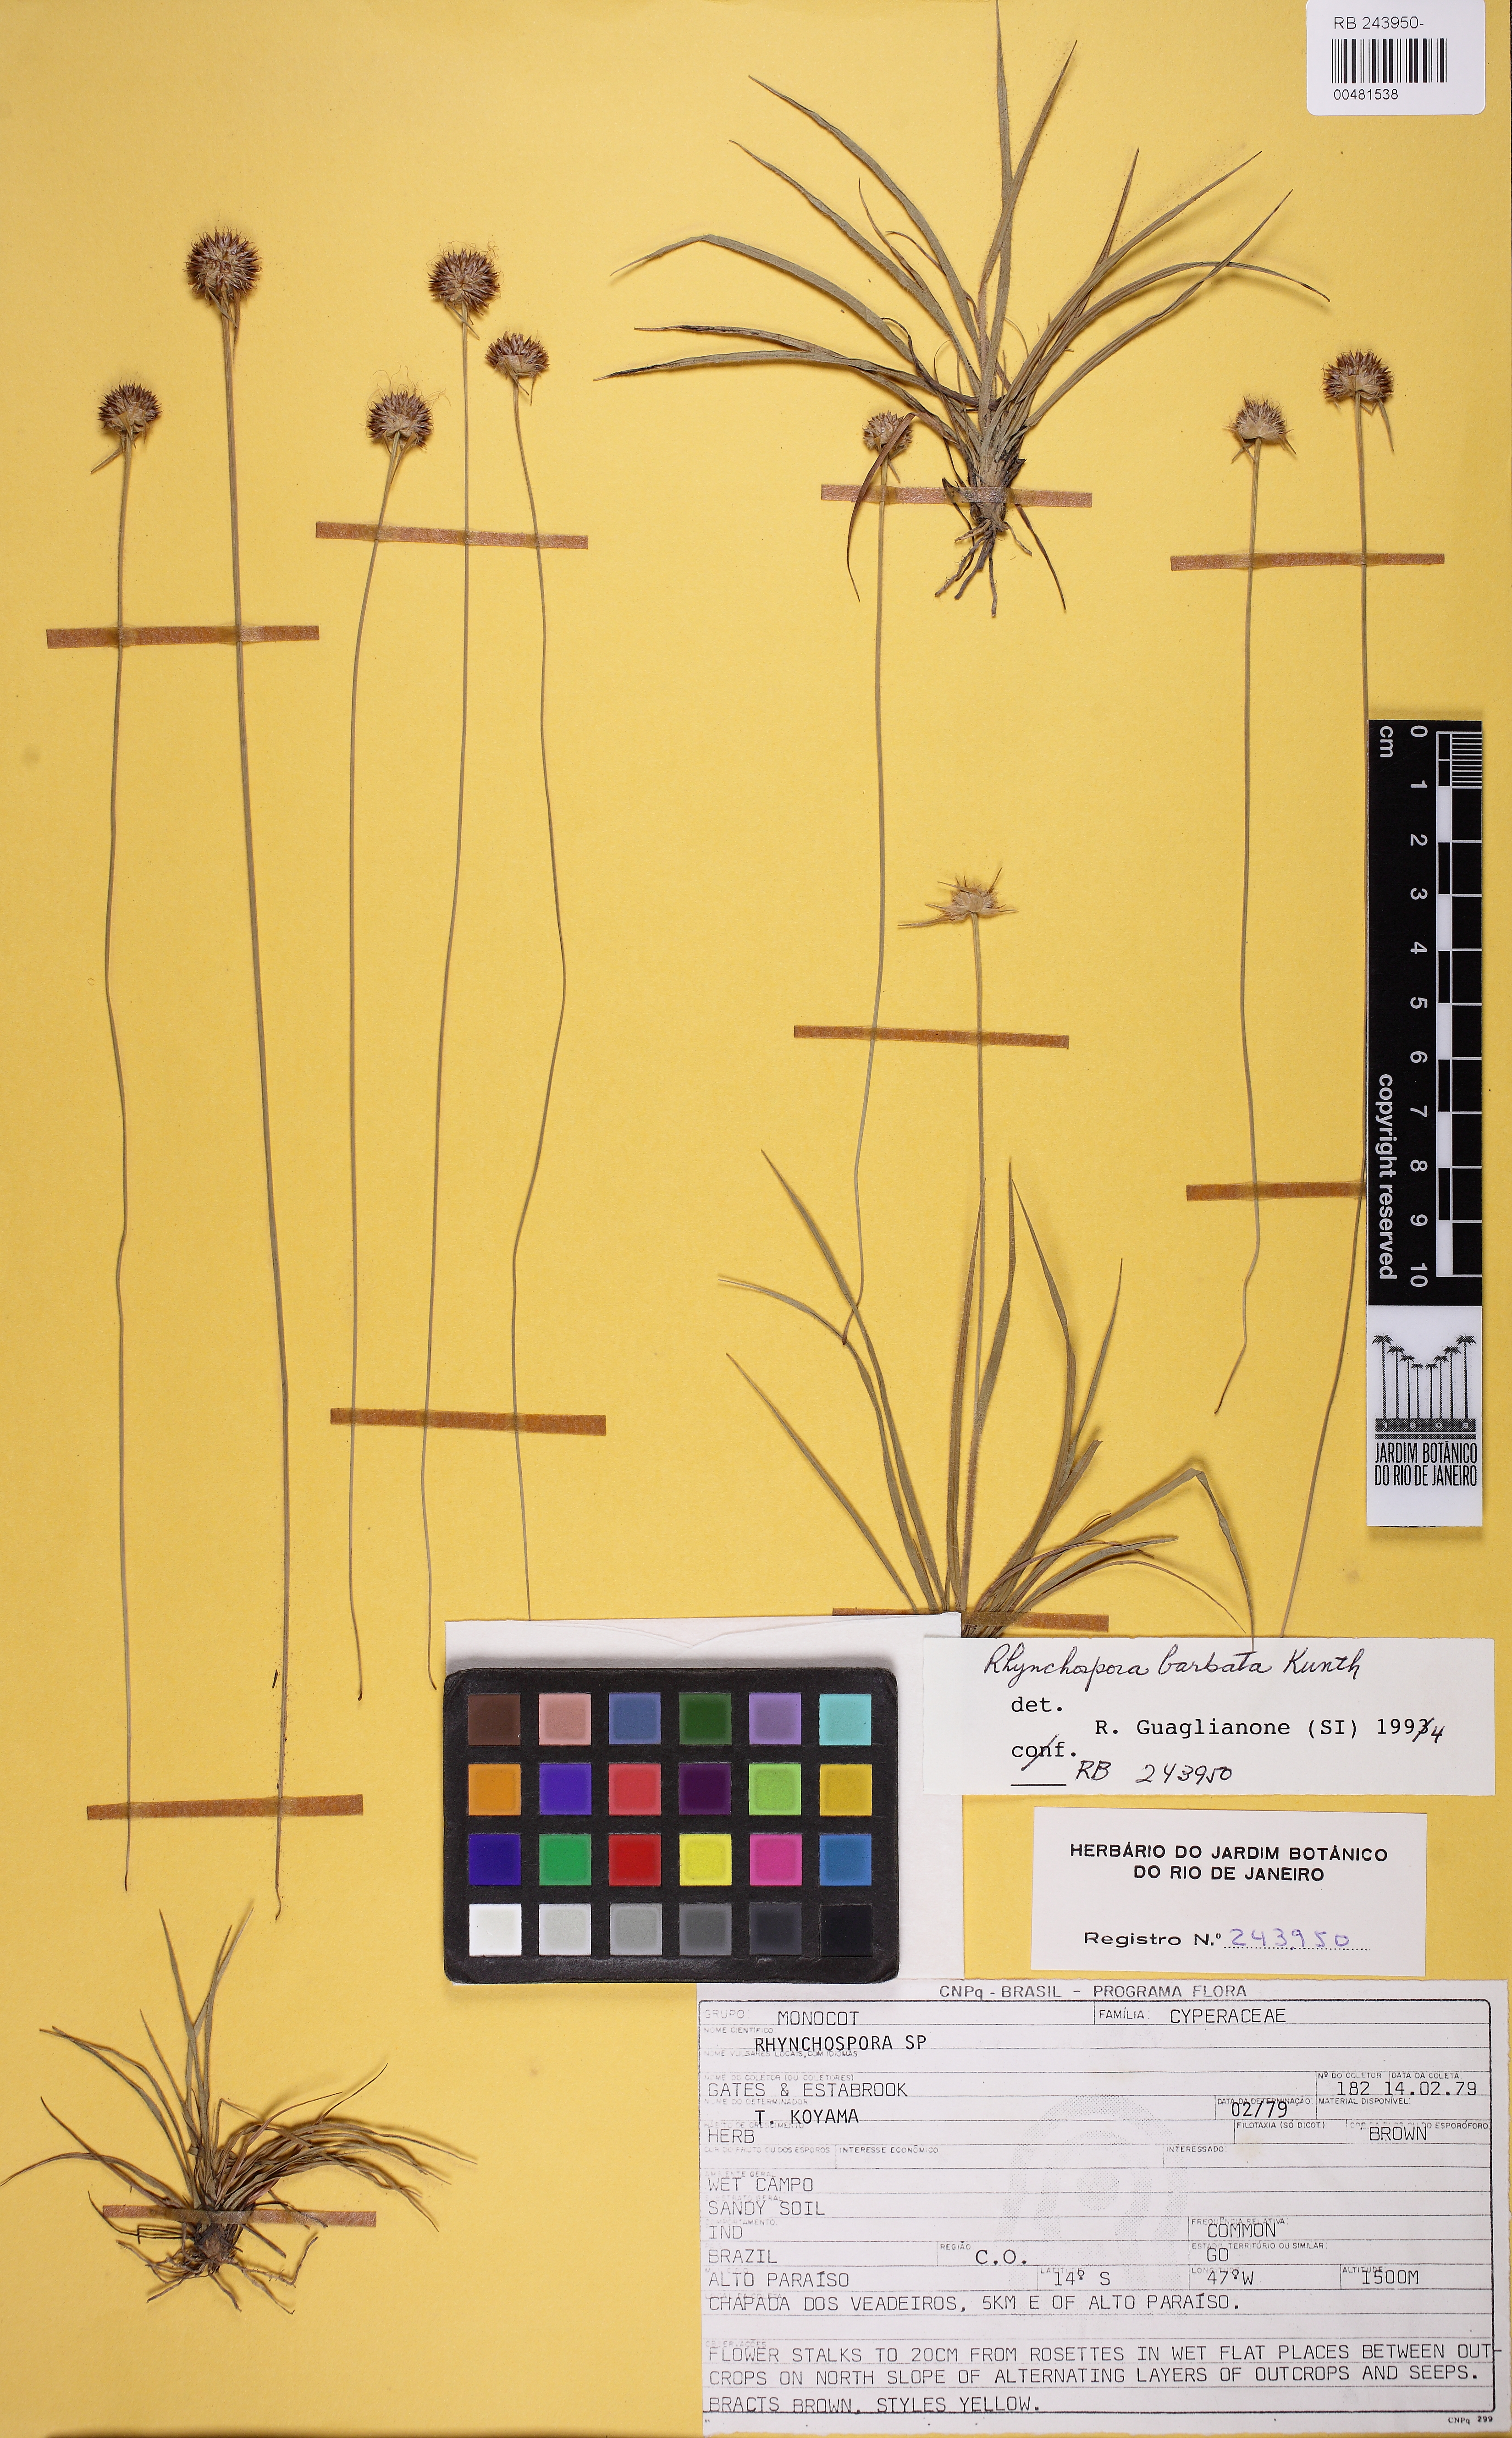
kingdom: Plantae
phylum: Tracheophyta
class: Liliopsida
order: Poales
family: Cyperaceae
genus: Rhynchospora
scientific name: Rhynchospora barbata
